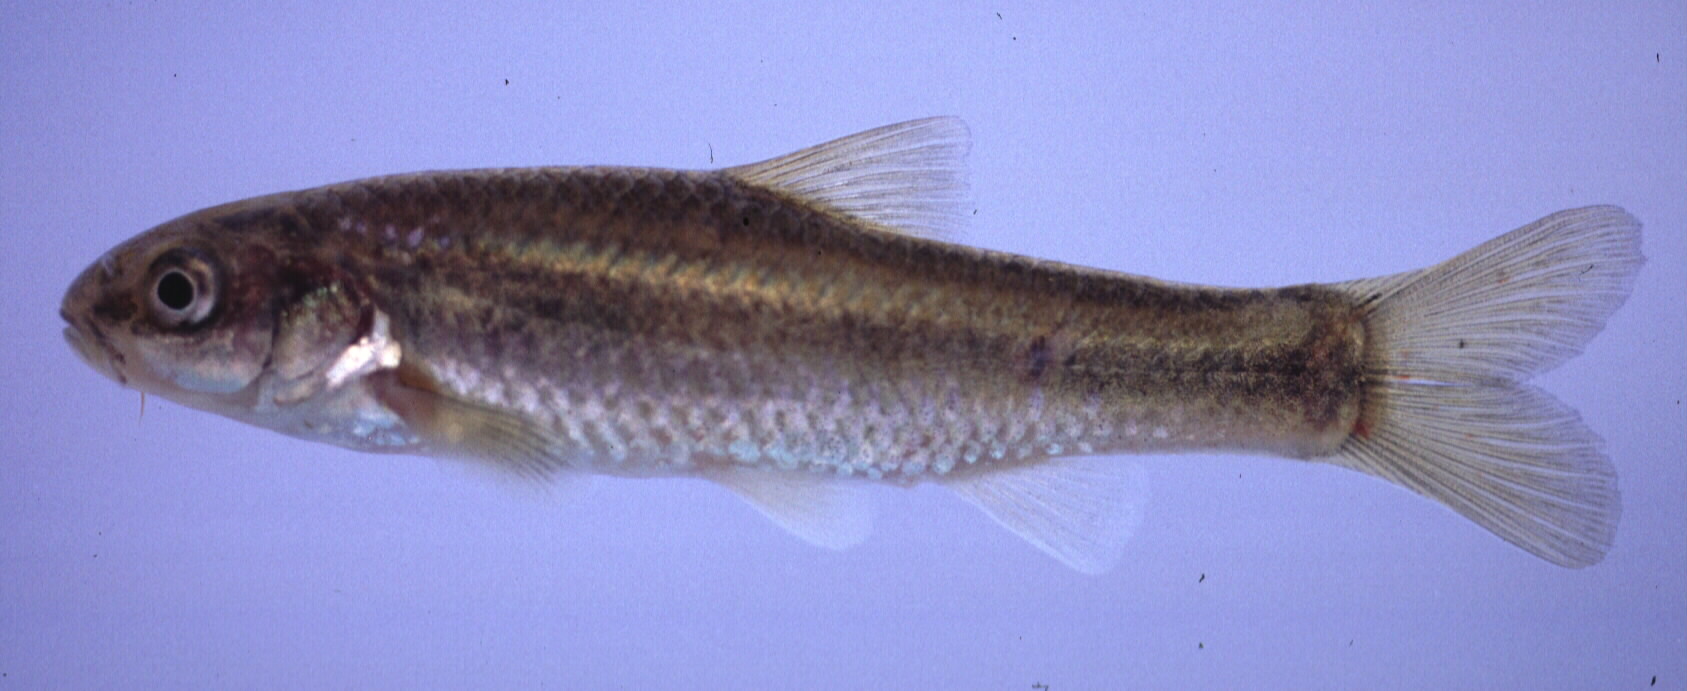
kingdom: Animalia
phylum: Chordata
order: Cypriniformes
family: Cyprinidae
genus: Enteromius
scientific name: Enteromius motebensis
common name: Marico barb
